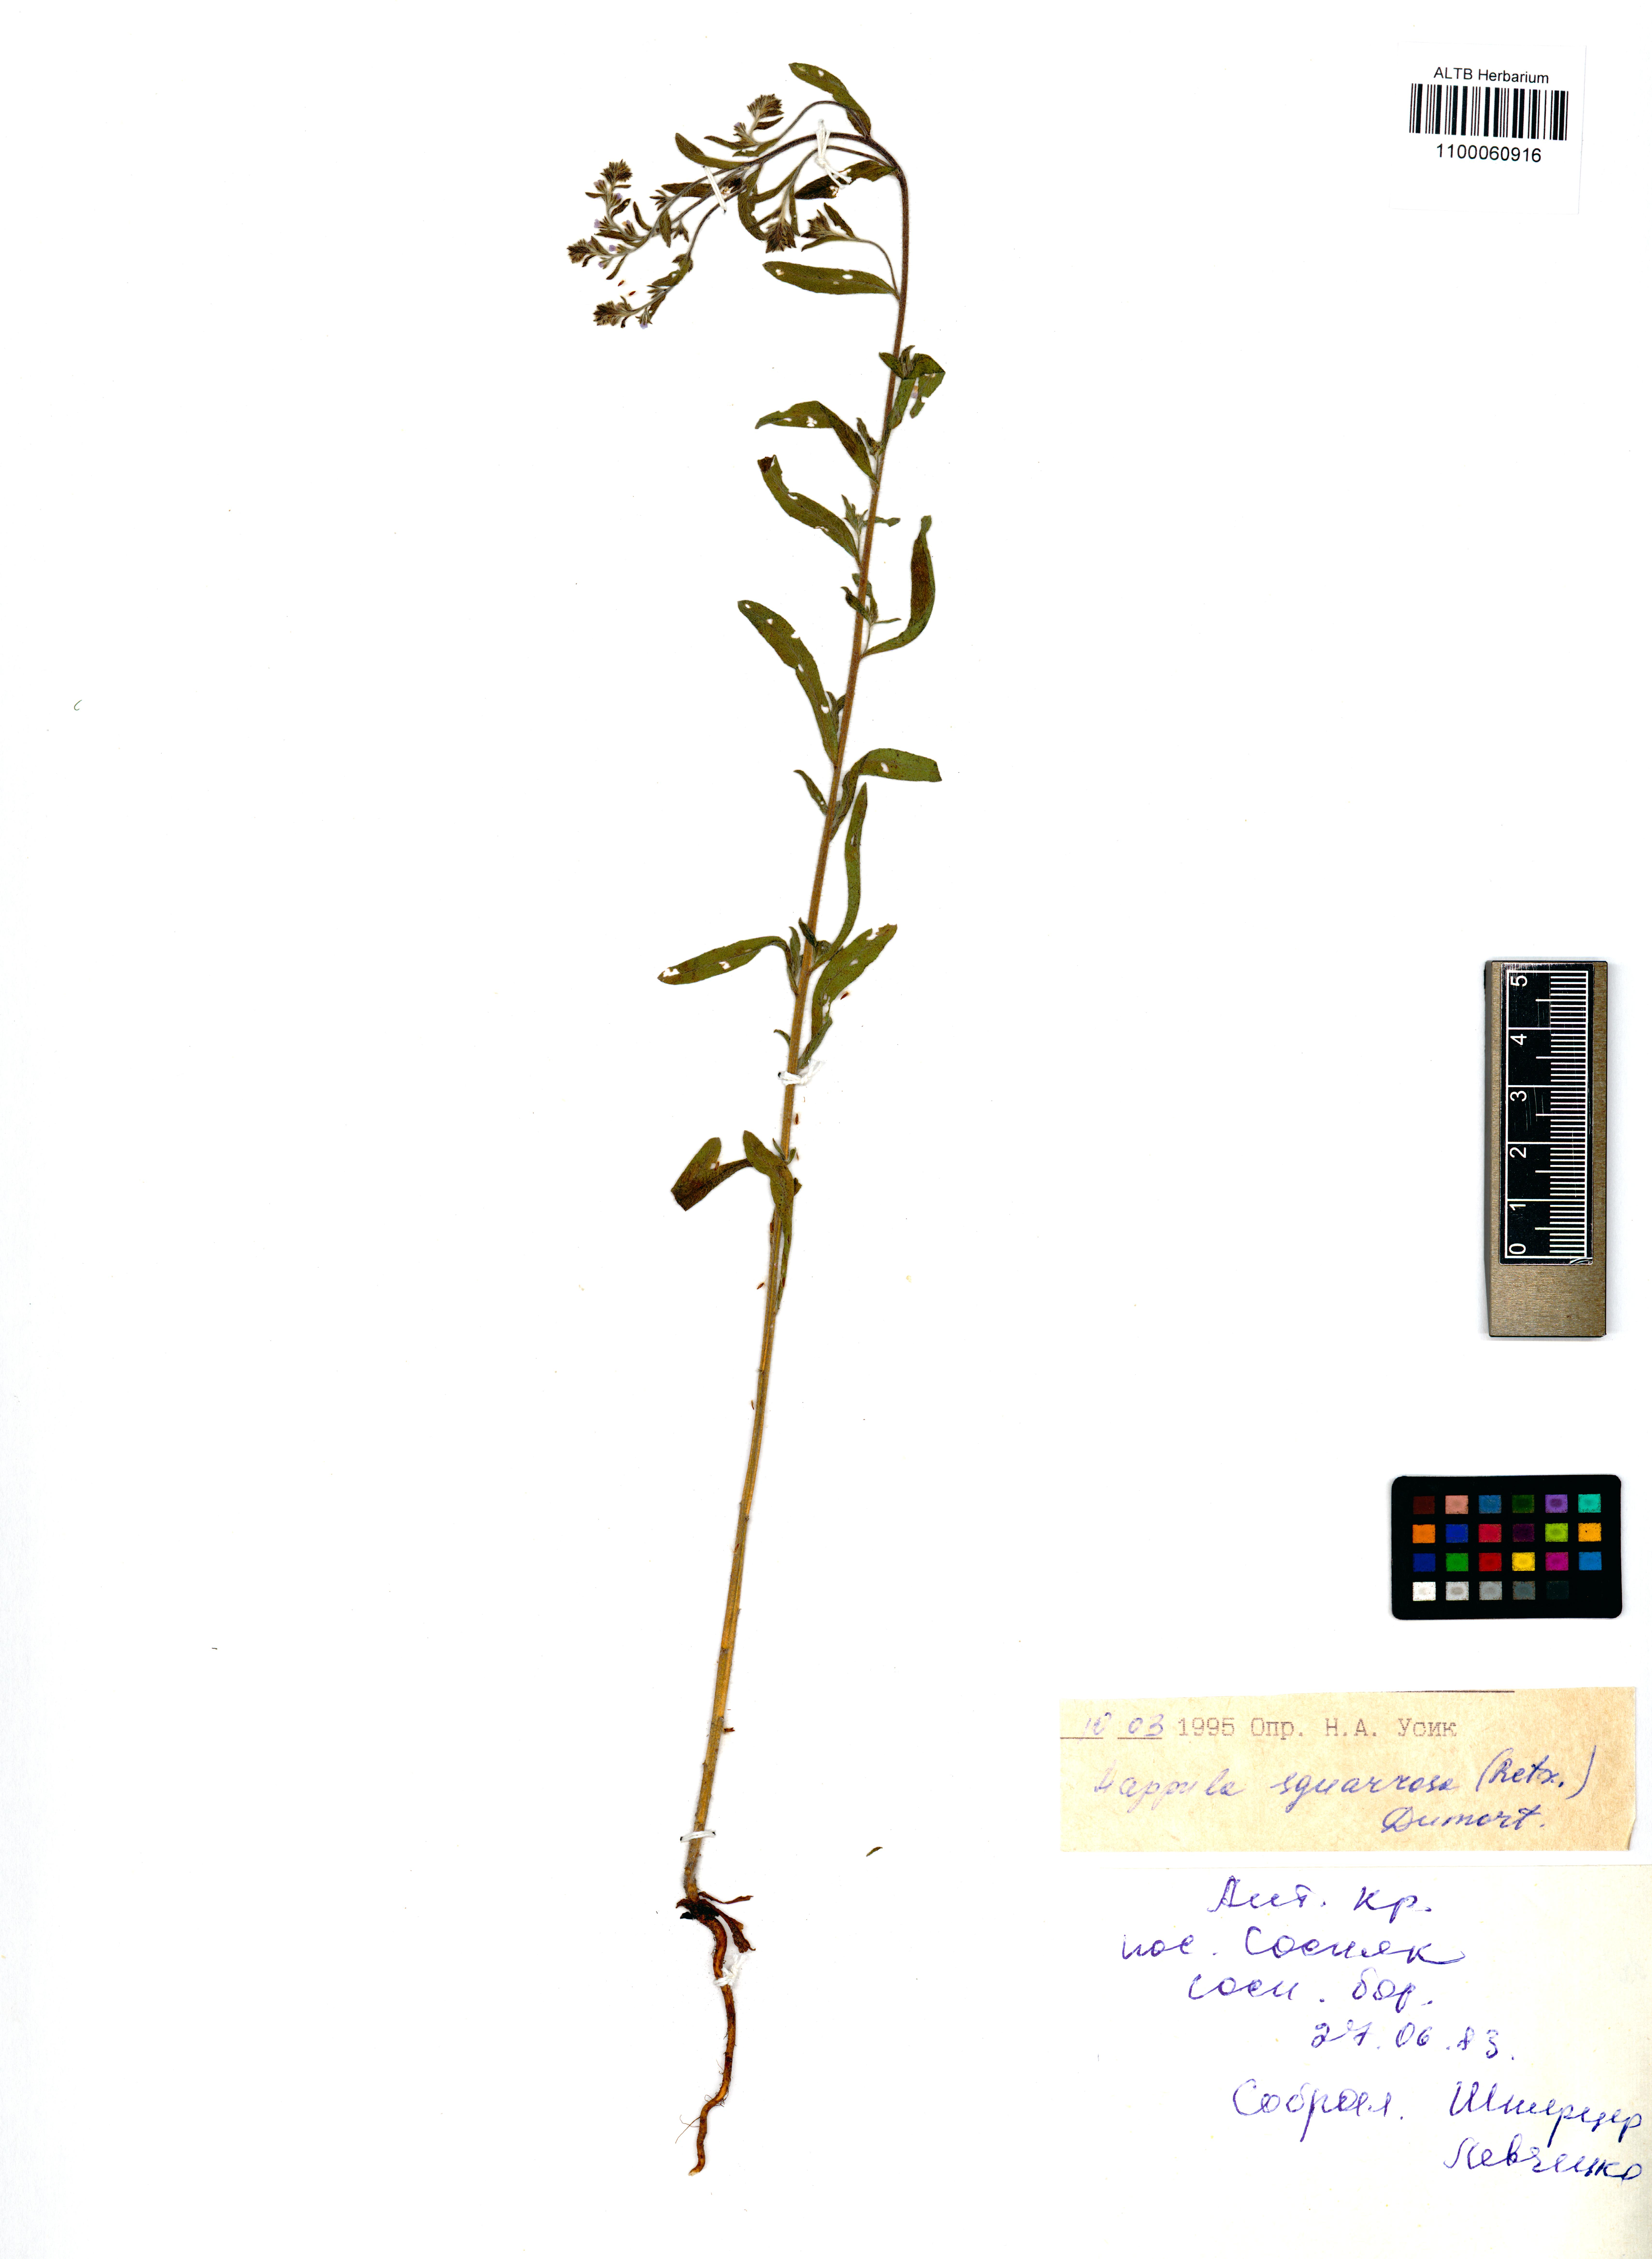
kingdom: Plantae
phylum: Tracheophyta
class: Magnoliopsida
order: Boraginales
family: Boraginaceae
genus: Lappula
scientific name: Lappula squarrosa
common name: European stickseed
